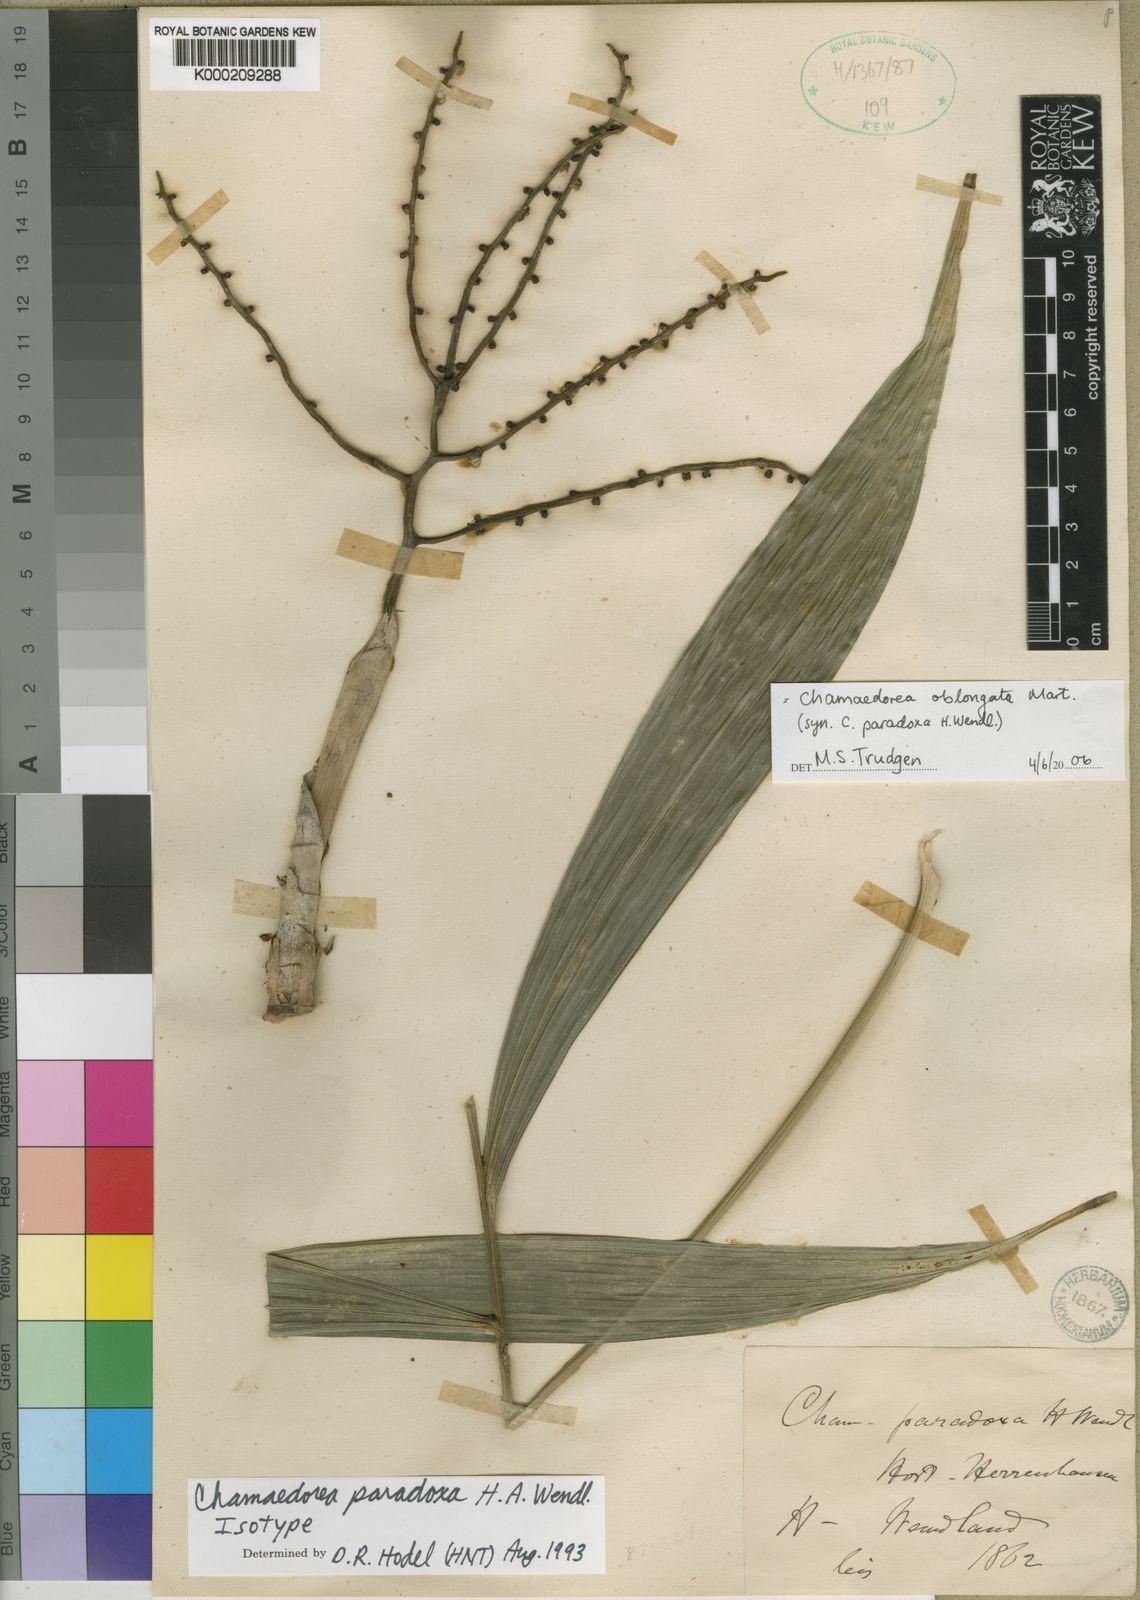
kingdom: Plantae
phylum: Tracheophyta
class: Liliopsida
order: Arecales
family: Arecaceae
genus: Chamaedorea
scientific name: Chamaedorea oblongata
